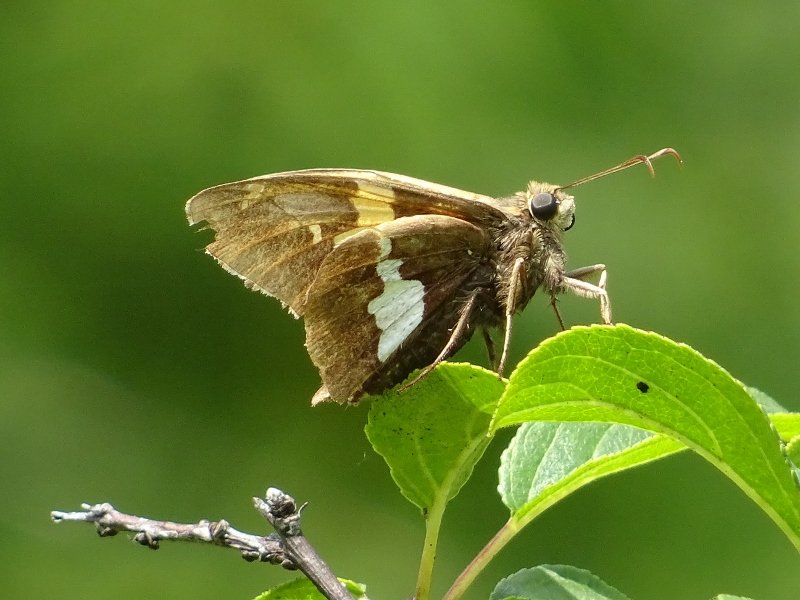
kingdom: Animalia
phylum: Arthropoda
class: Insecta
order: Lepidoptera
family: Hesperiidae
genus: Epargyreus
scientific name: Epargyreus clarus
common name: Silver-spotted Skipper
